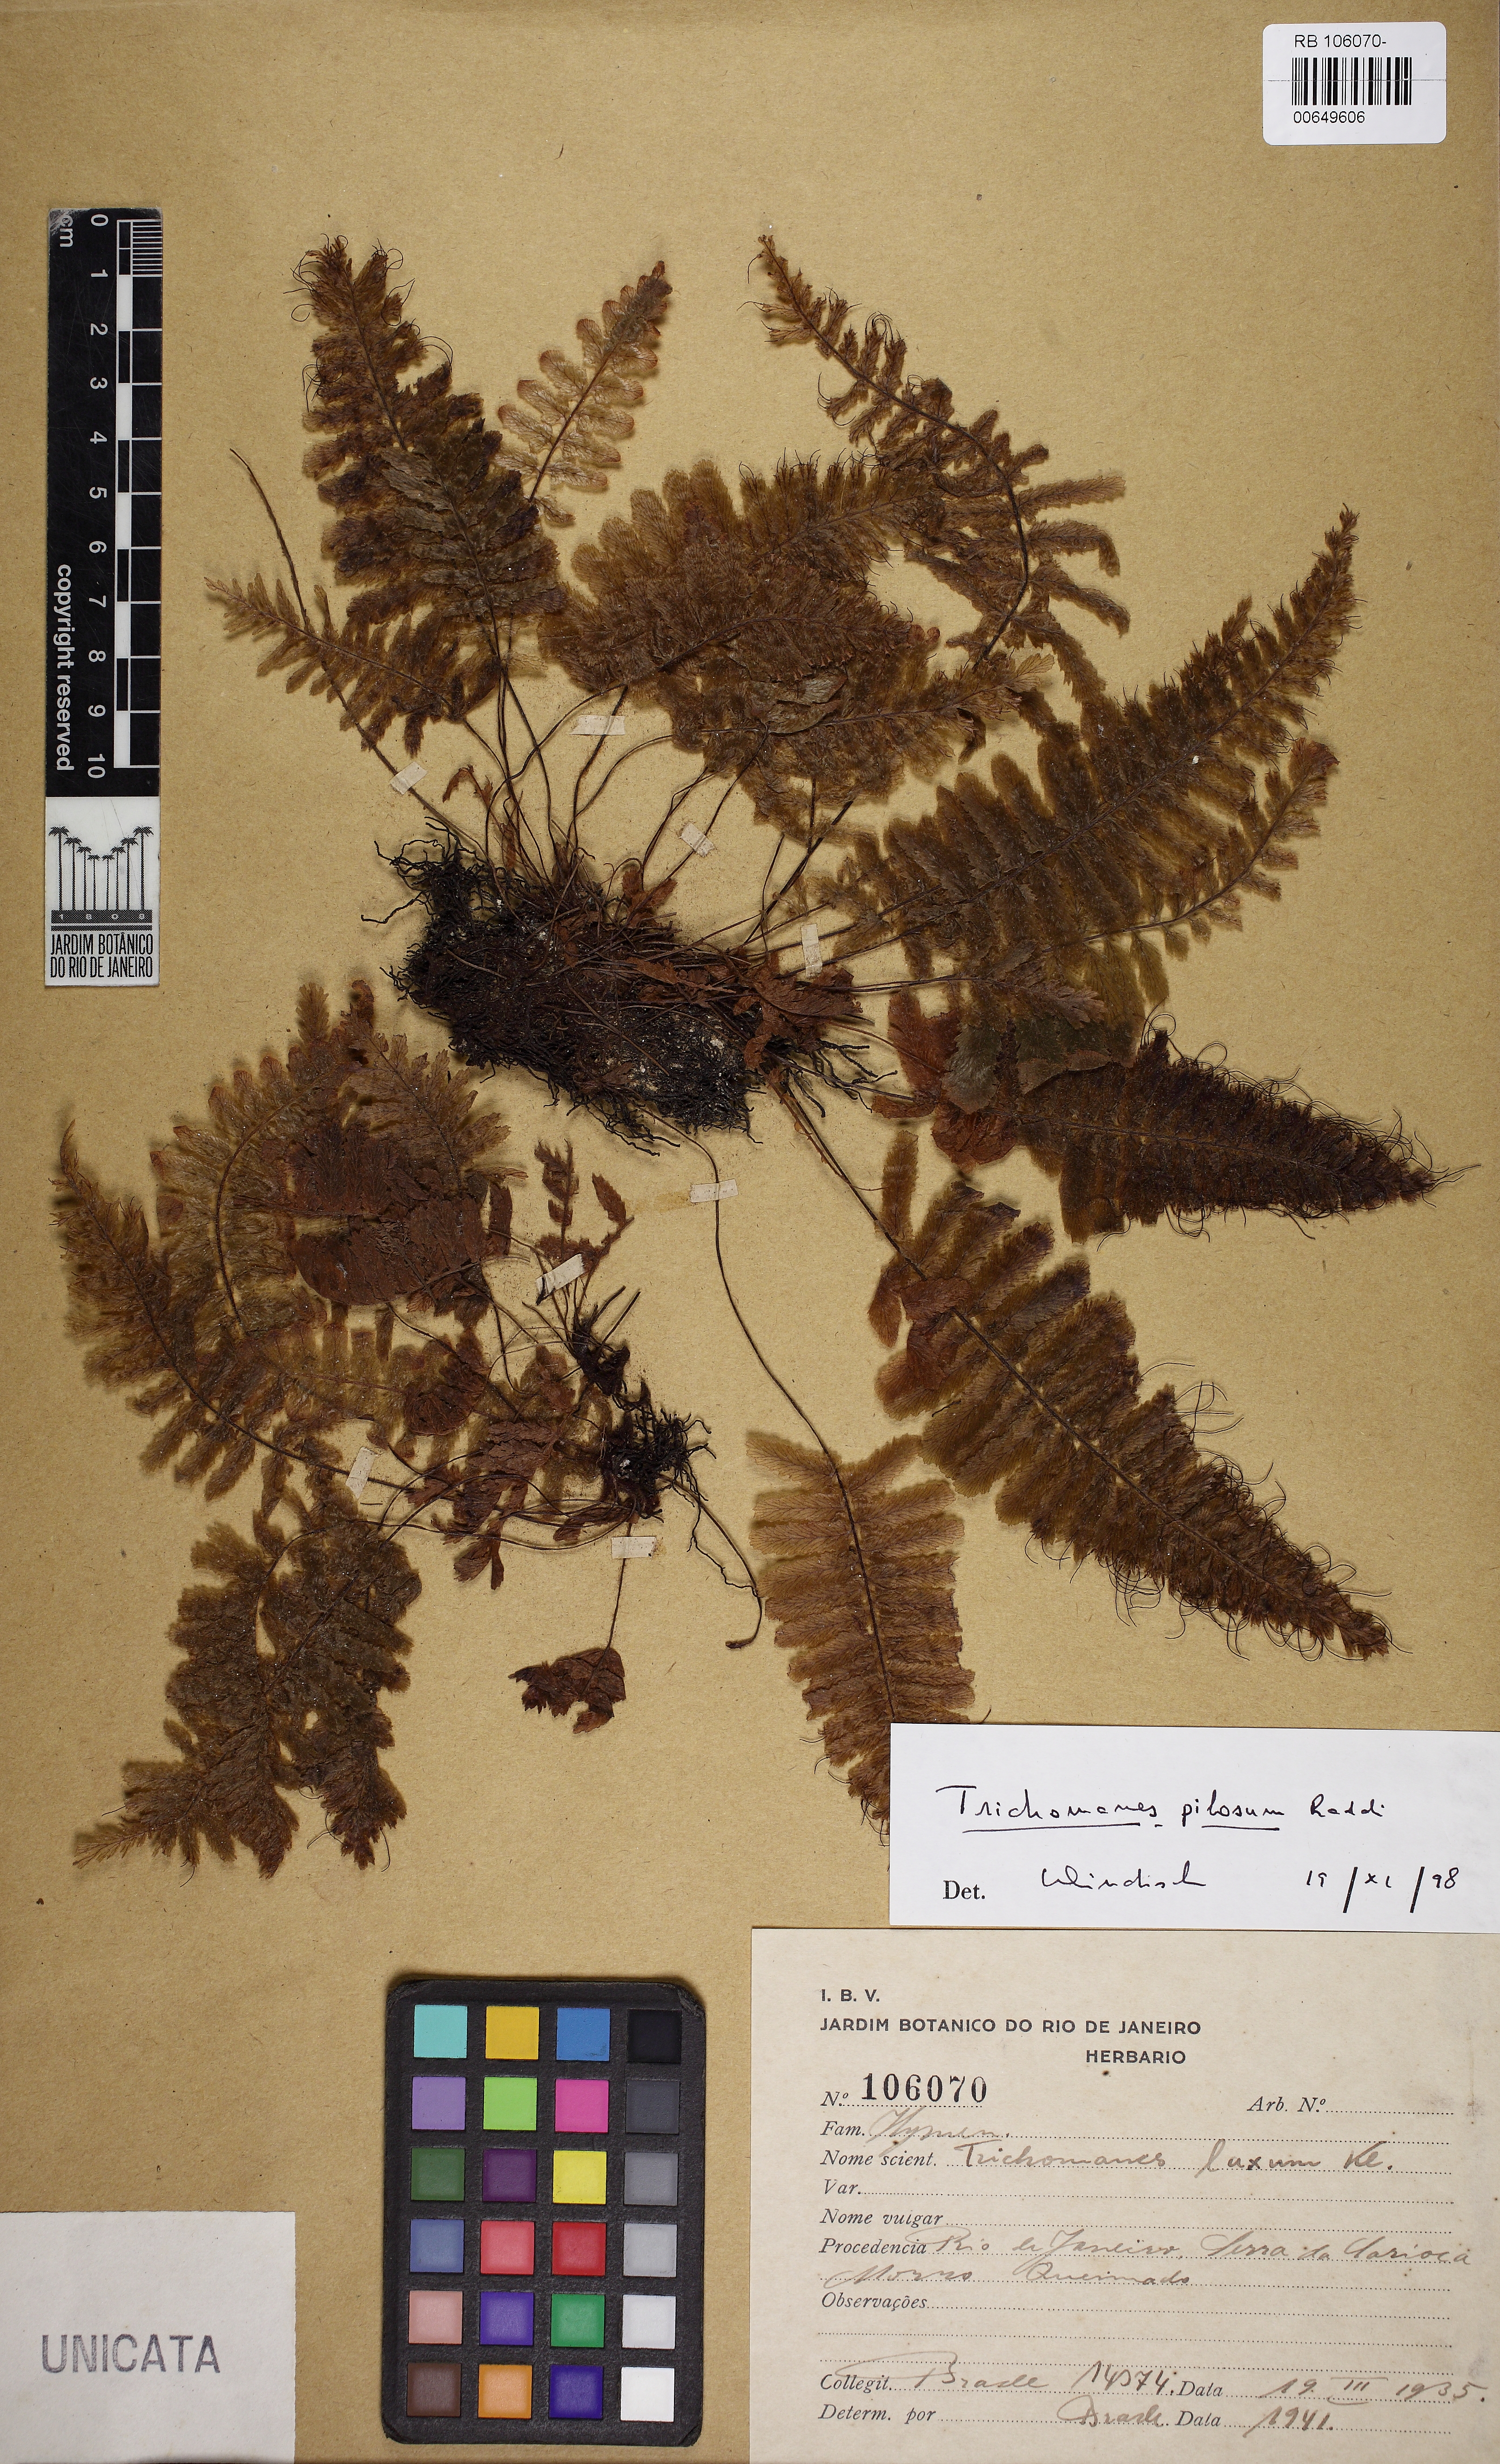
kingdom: Plantae
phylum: Tracheophyta
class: Polypodiopsida
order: Hymenophyllales
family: Hymenophyllaceae
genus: Trichomanes
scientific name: Trichomanes pilosum
